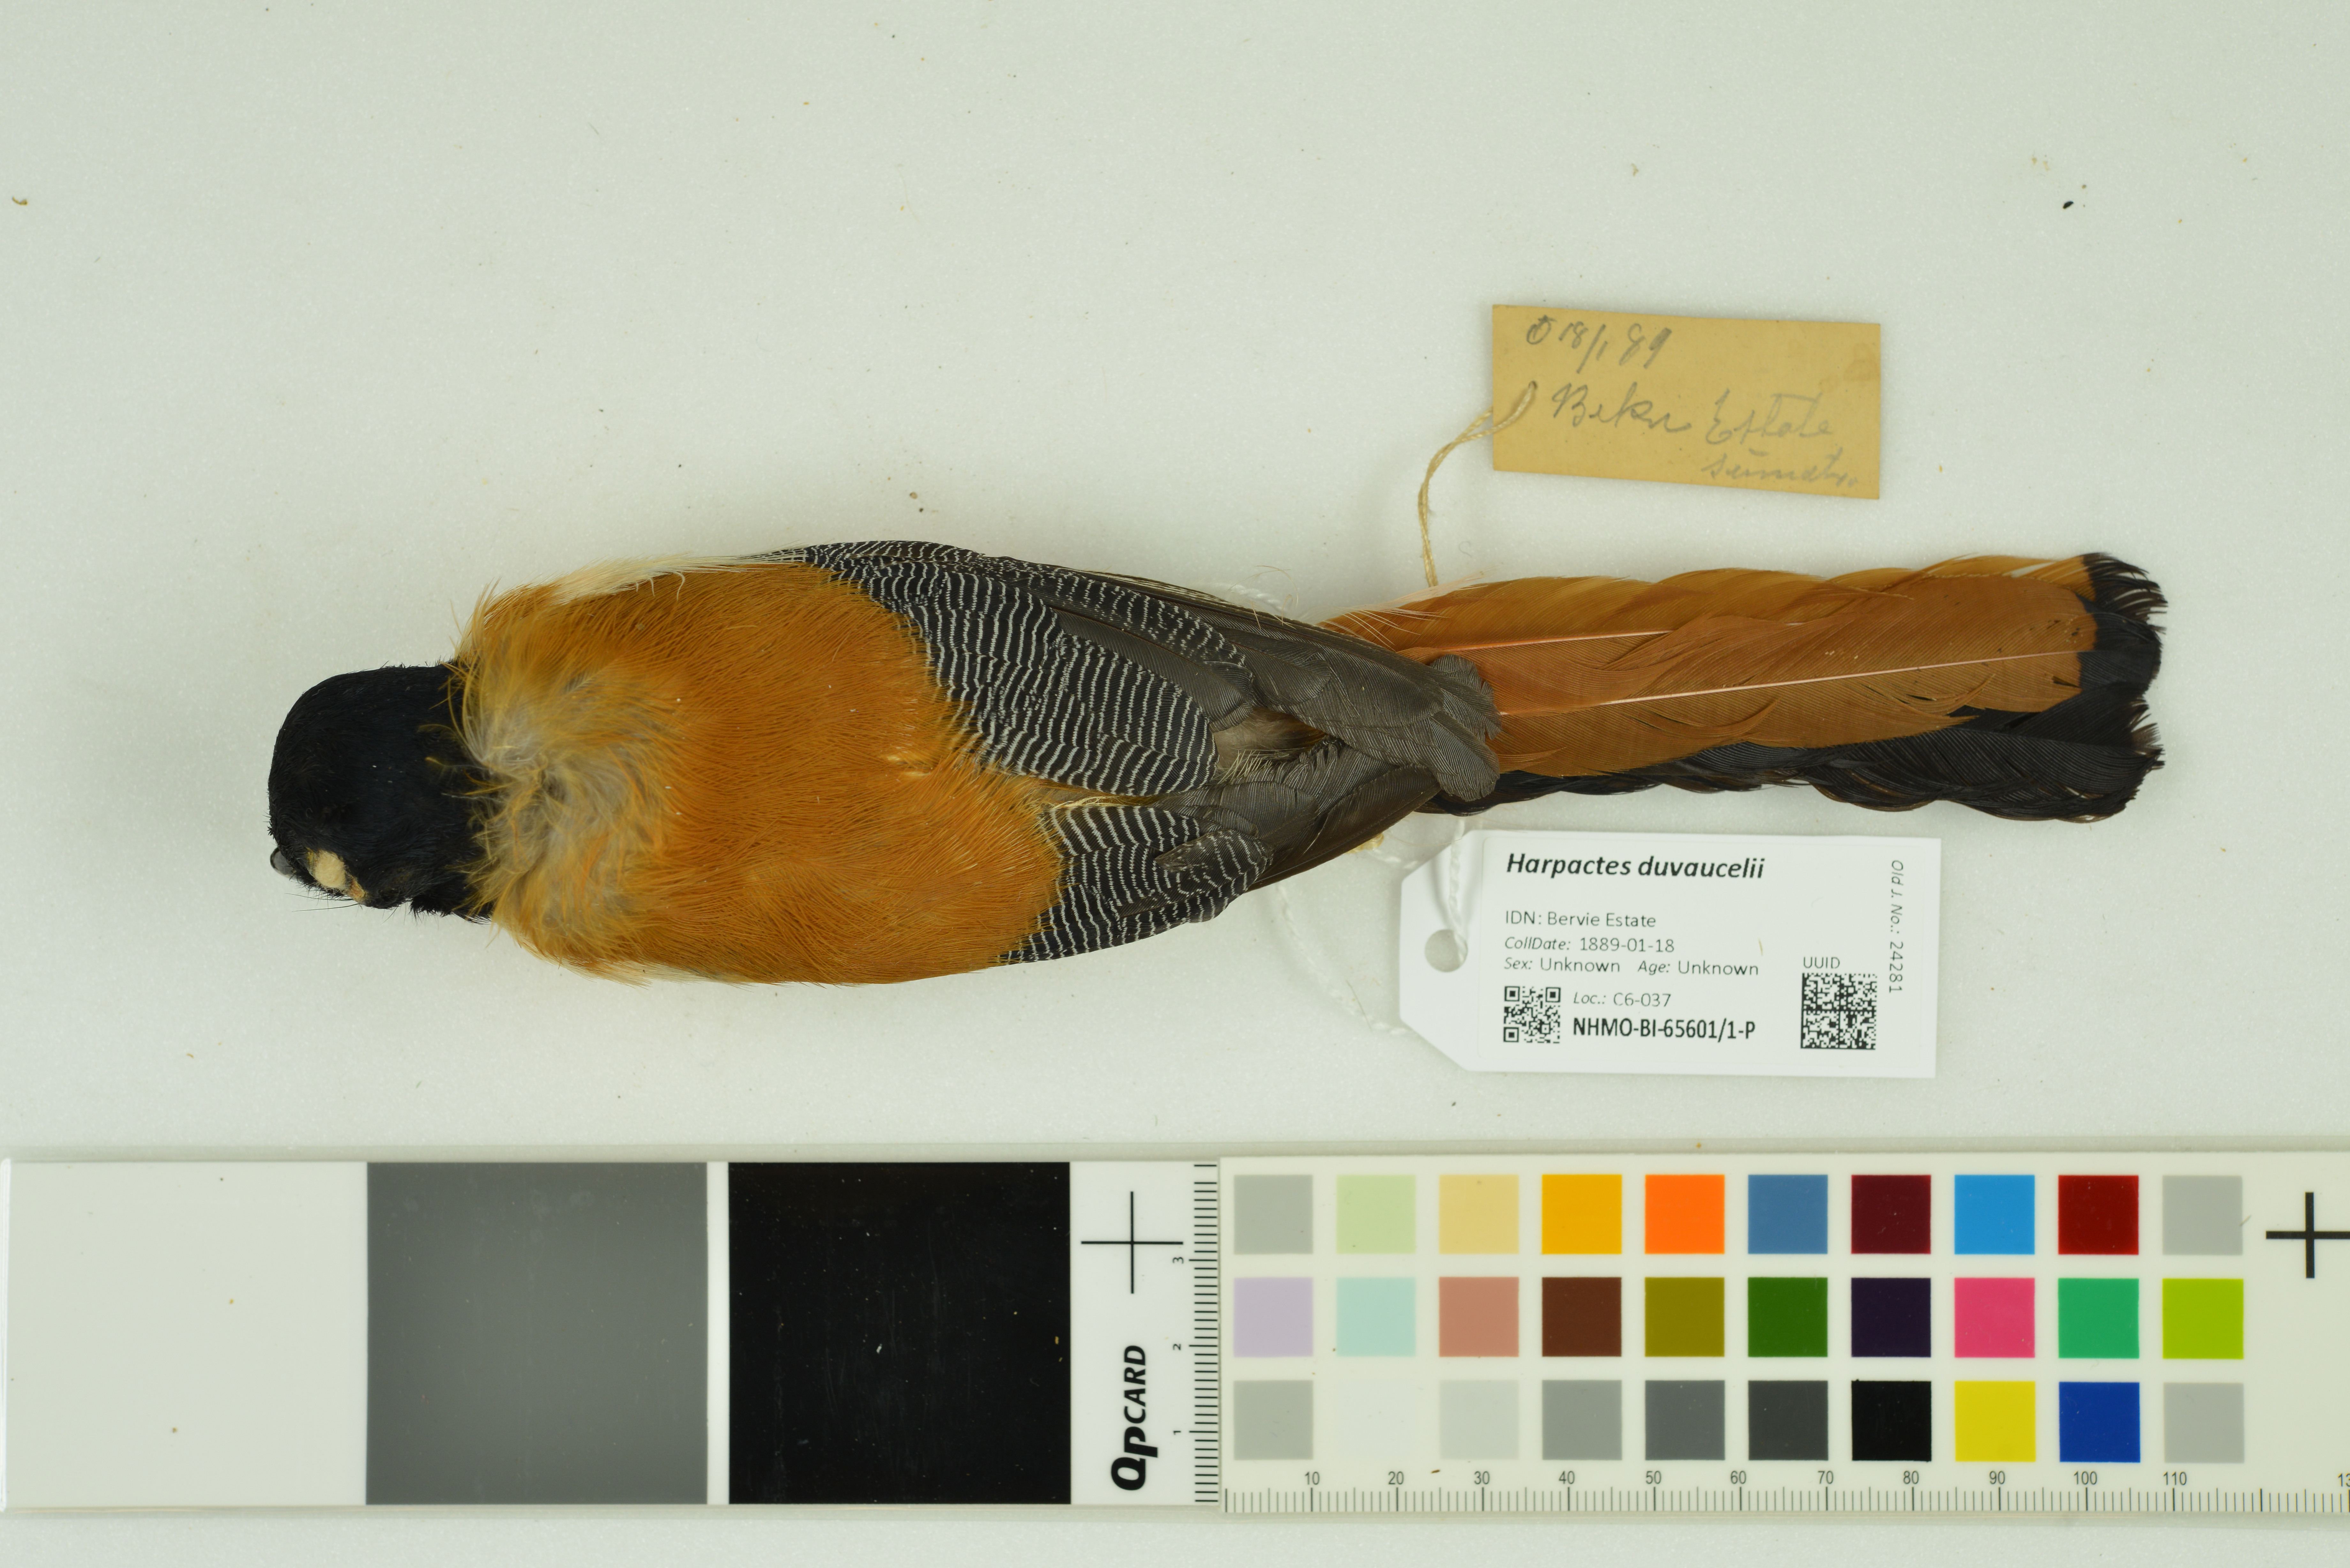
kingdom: Animalia
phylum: Chordata
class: Aves
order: Trogoniformes
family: Trogonidae
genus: Harpactes
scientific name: Harpactes duvaucelii
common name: Scarlet-rumped trogon
